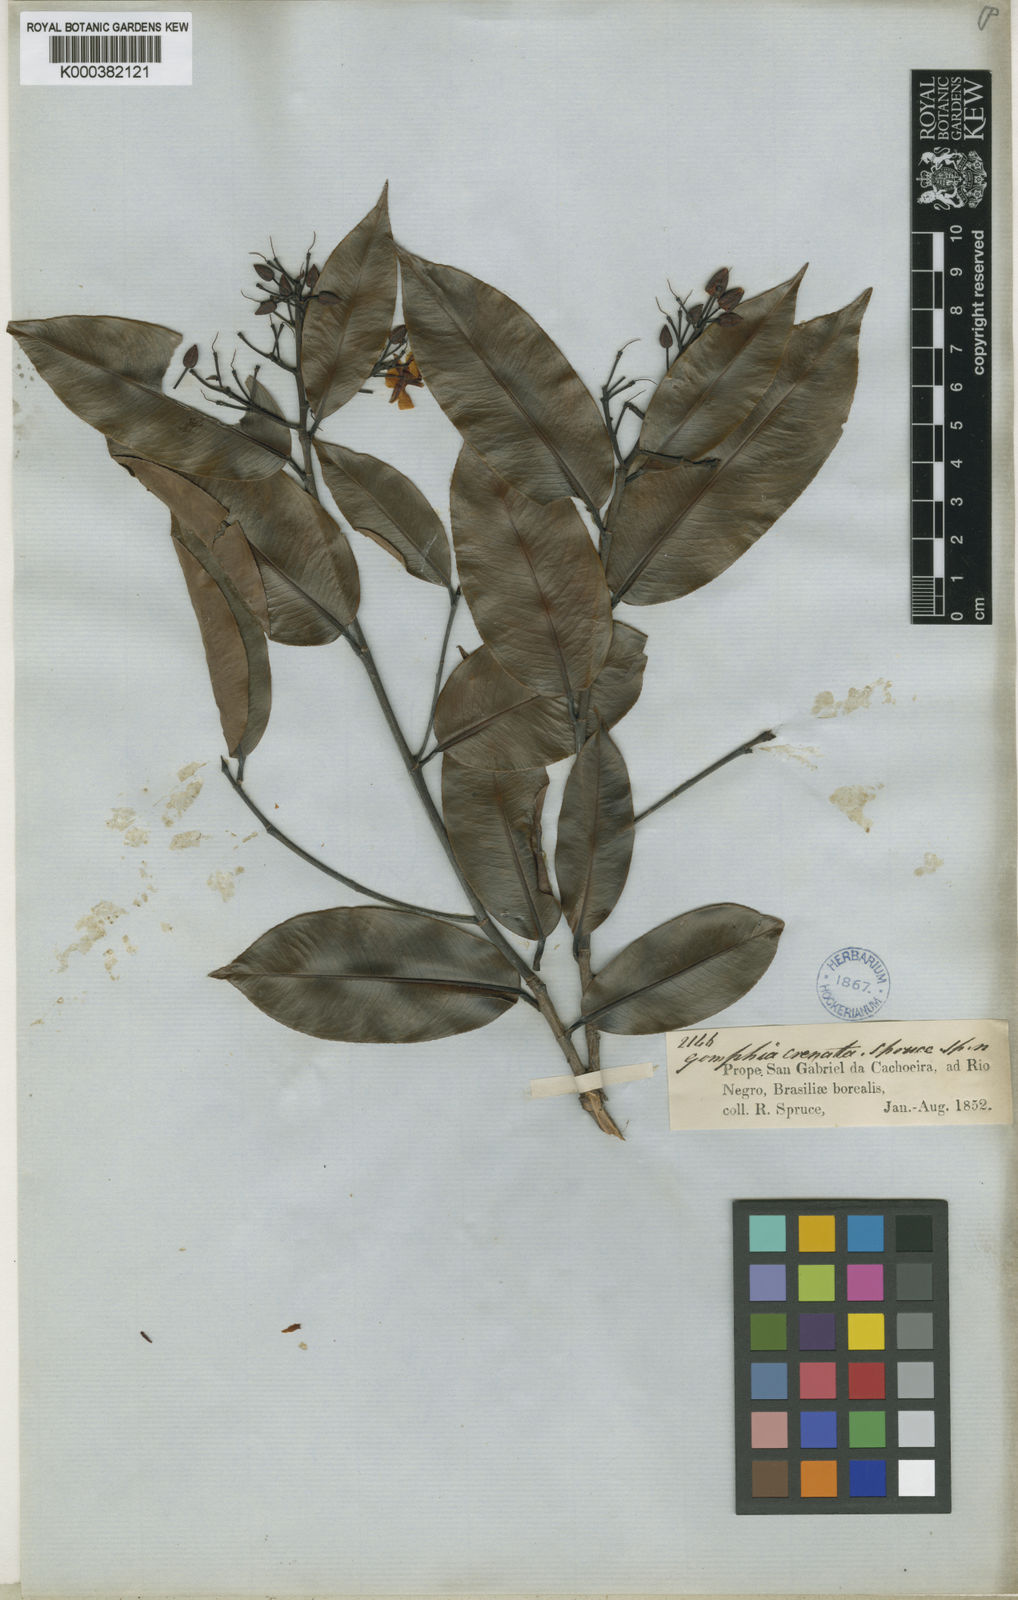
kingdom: Plantae
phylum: Tracheophyta
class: Magnoliopsida
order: Malpighiales
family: Ochnaceae
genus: Ouratea
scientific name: Ouratea pisiformis
